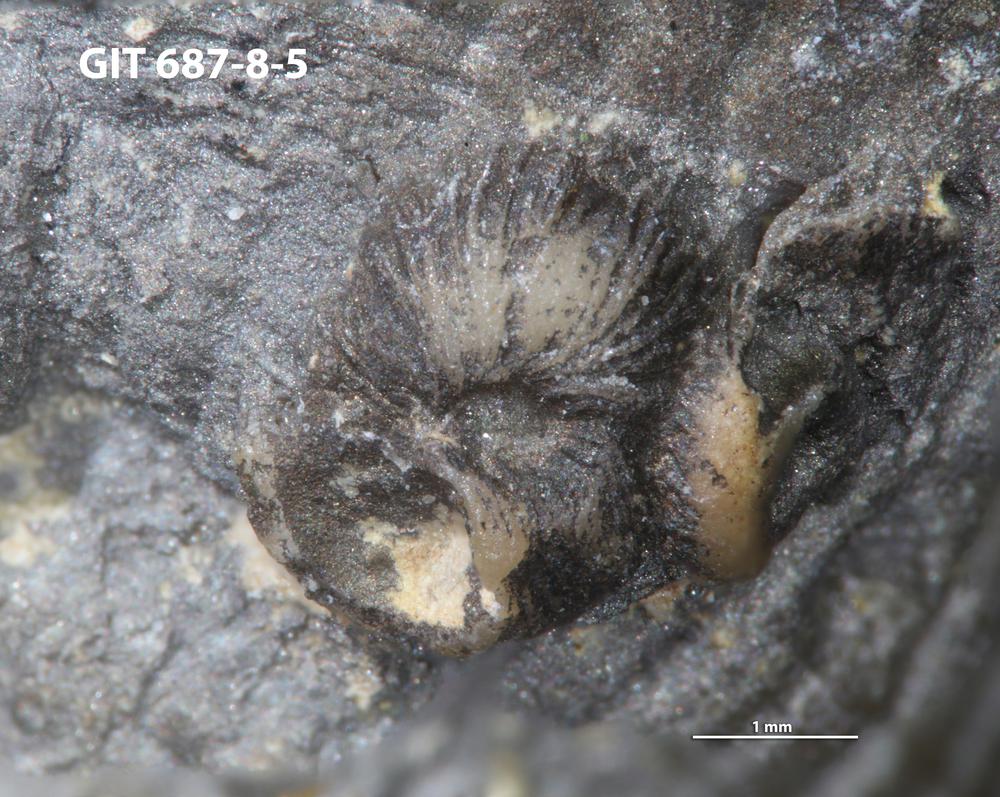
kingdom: Animalia
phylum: Mollusca
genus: Lindstroemiella
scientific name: Lindstroemiella
